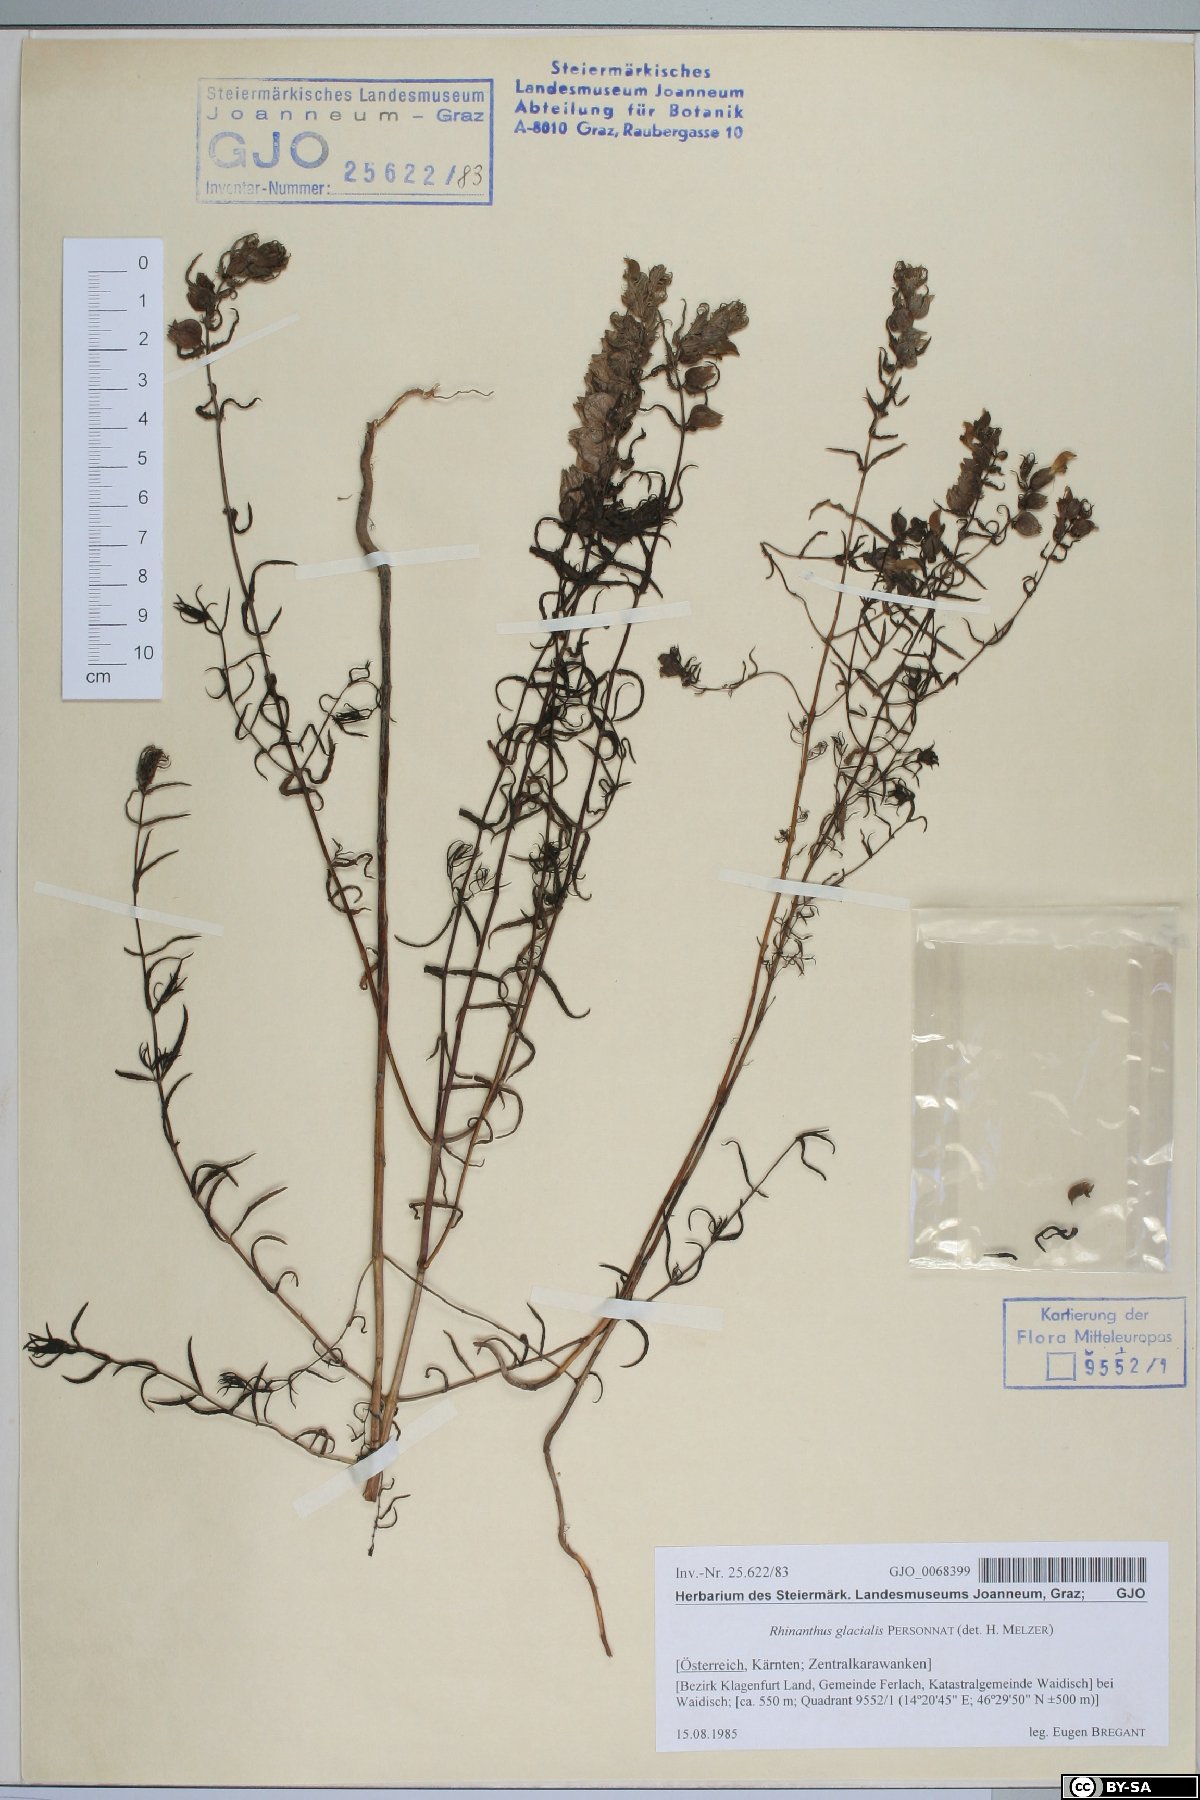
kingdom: Plantae
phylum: Tracheophyta
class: Magnoliopsida
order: Lamiales
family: Orobanchaceae
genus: Rhinanthus
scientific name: Rhinanthus glacialis
